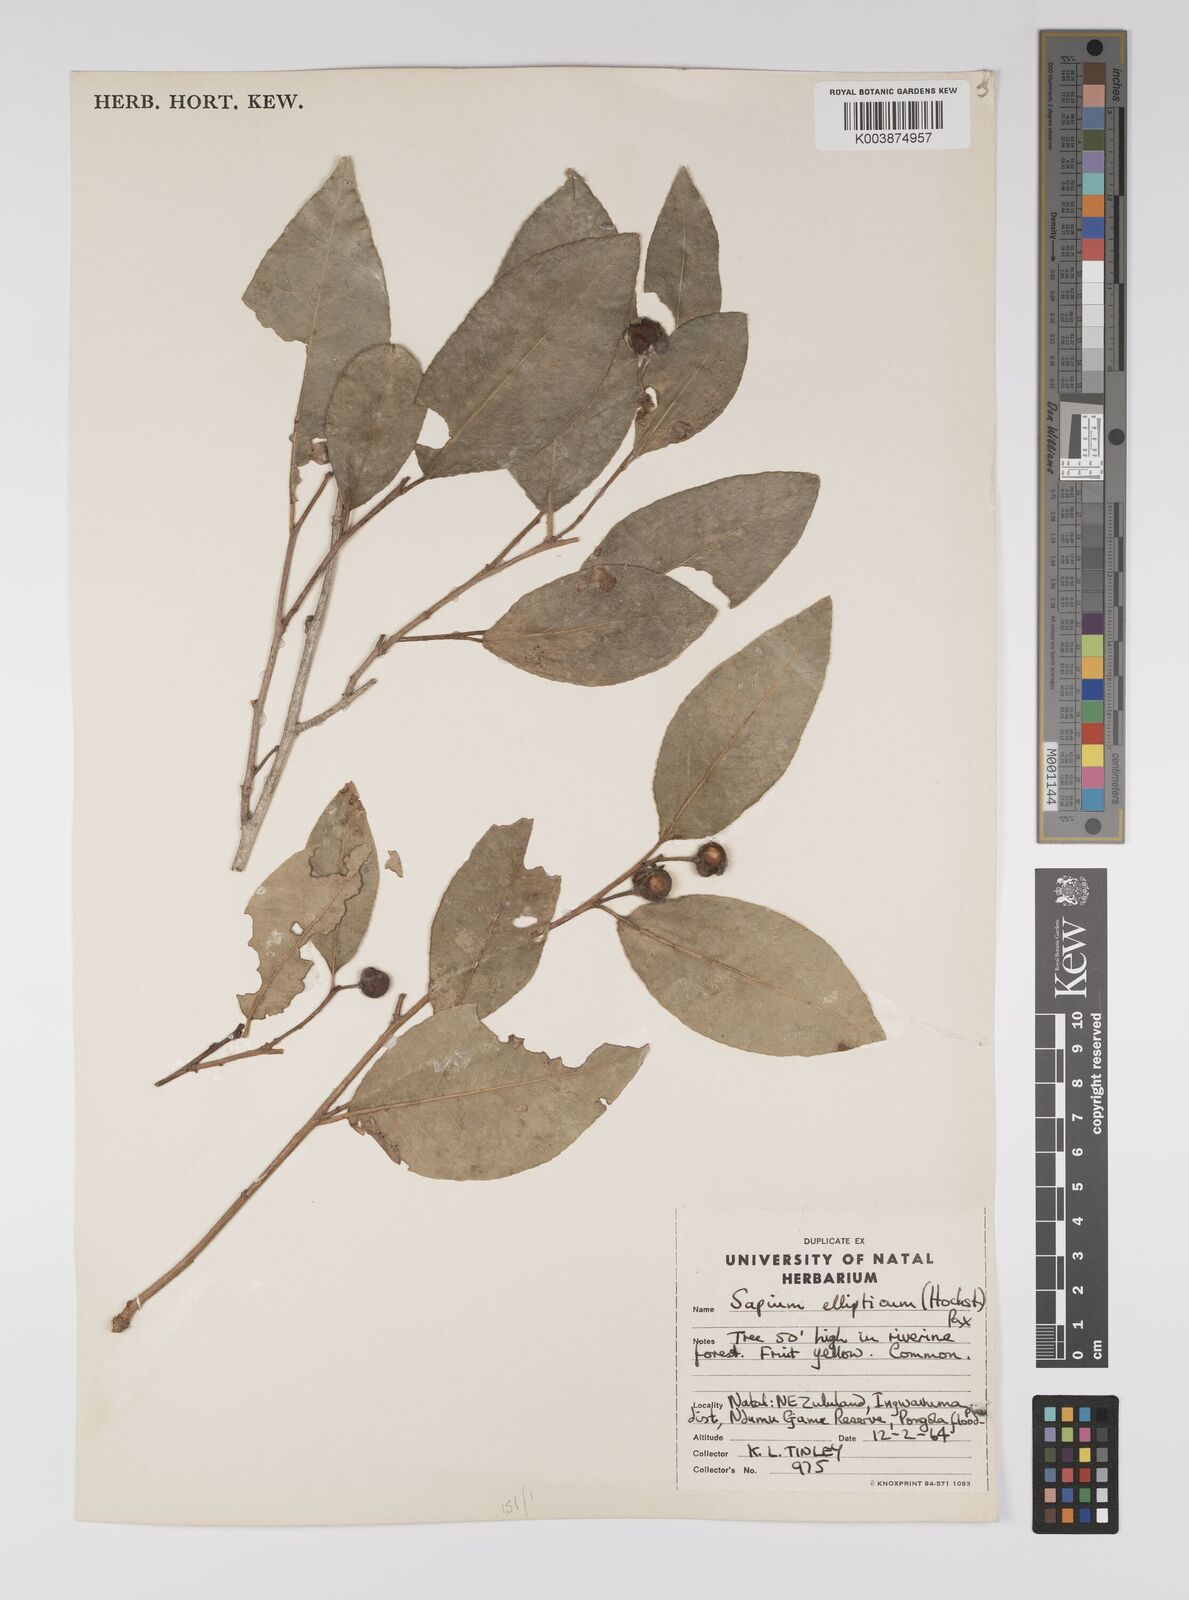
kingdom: Plantae
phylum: Tracheophyta
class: Magnoliopsida
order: Malpighiales
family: Euphorbiaceae
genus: Shirakiopsis
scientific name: Shirakiopsis elliptica
